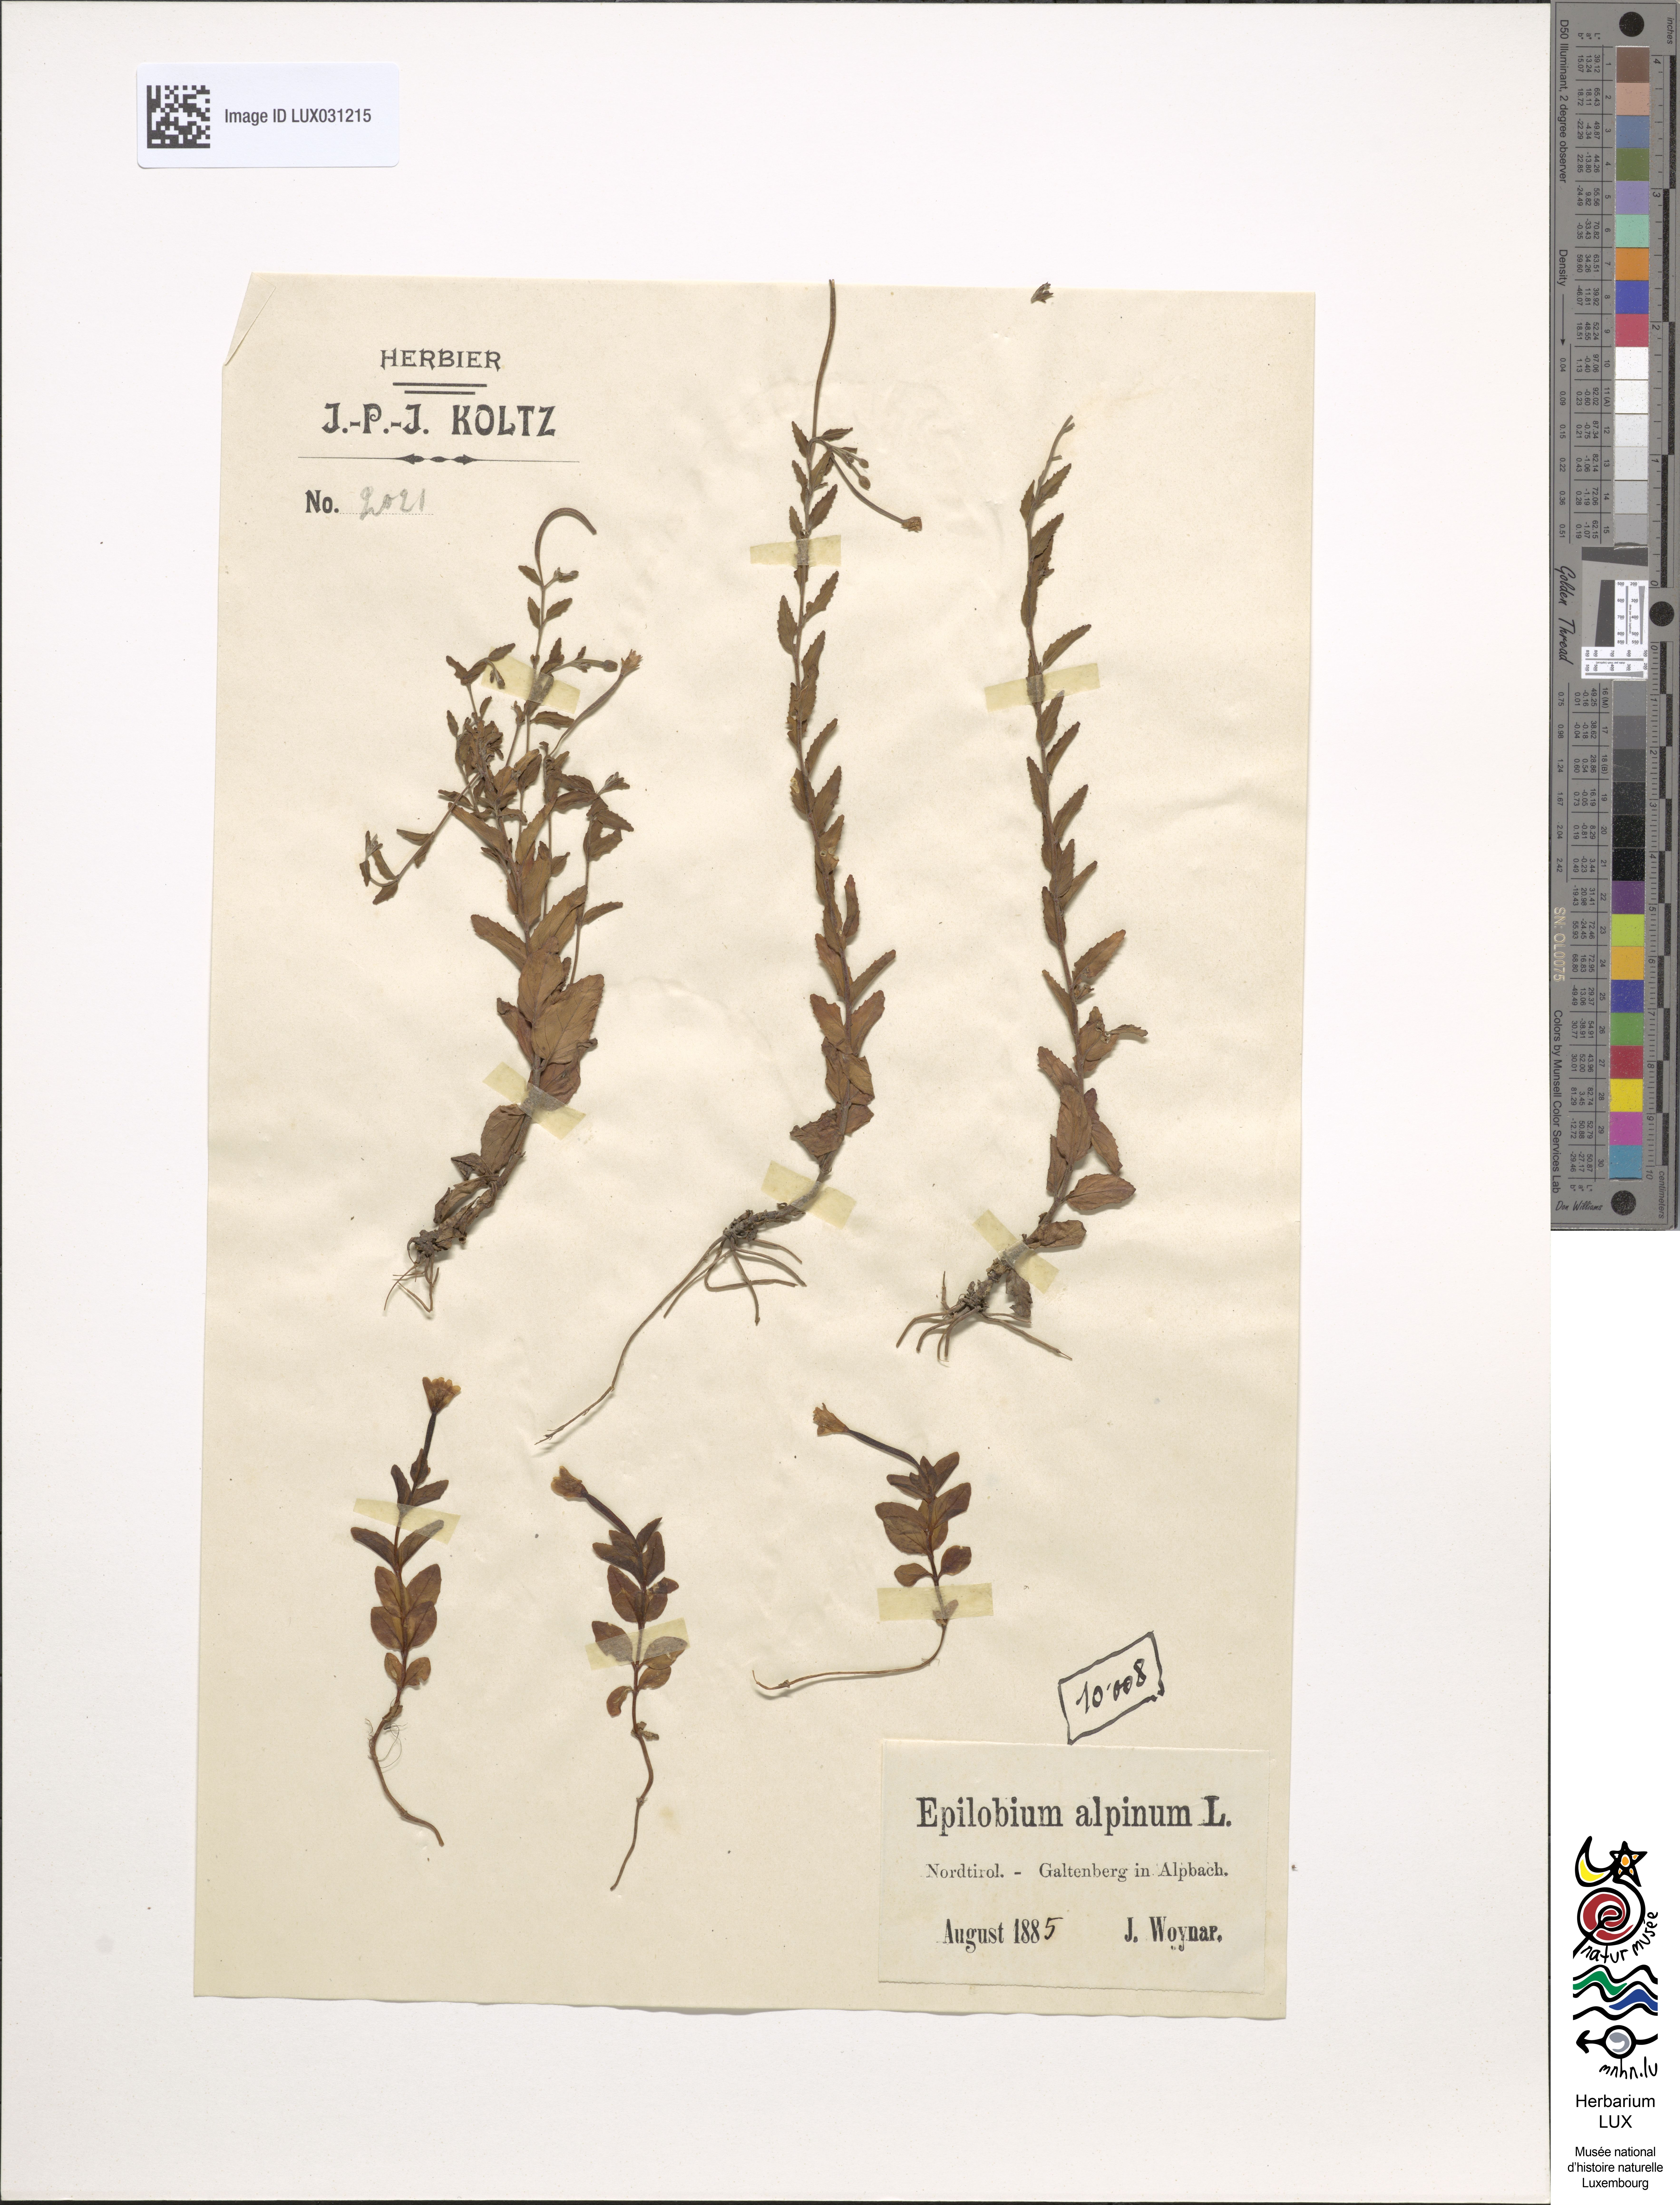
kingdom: Plantae
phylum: Tracheophyta
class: Magnoliopsida
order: Myrtales
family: Onagraceae
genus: Epilobium
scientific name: Epilobium
